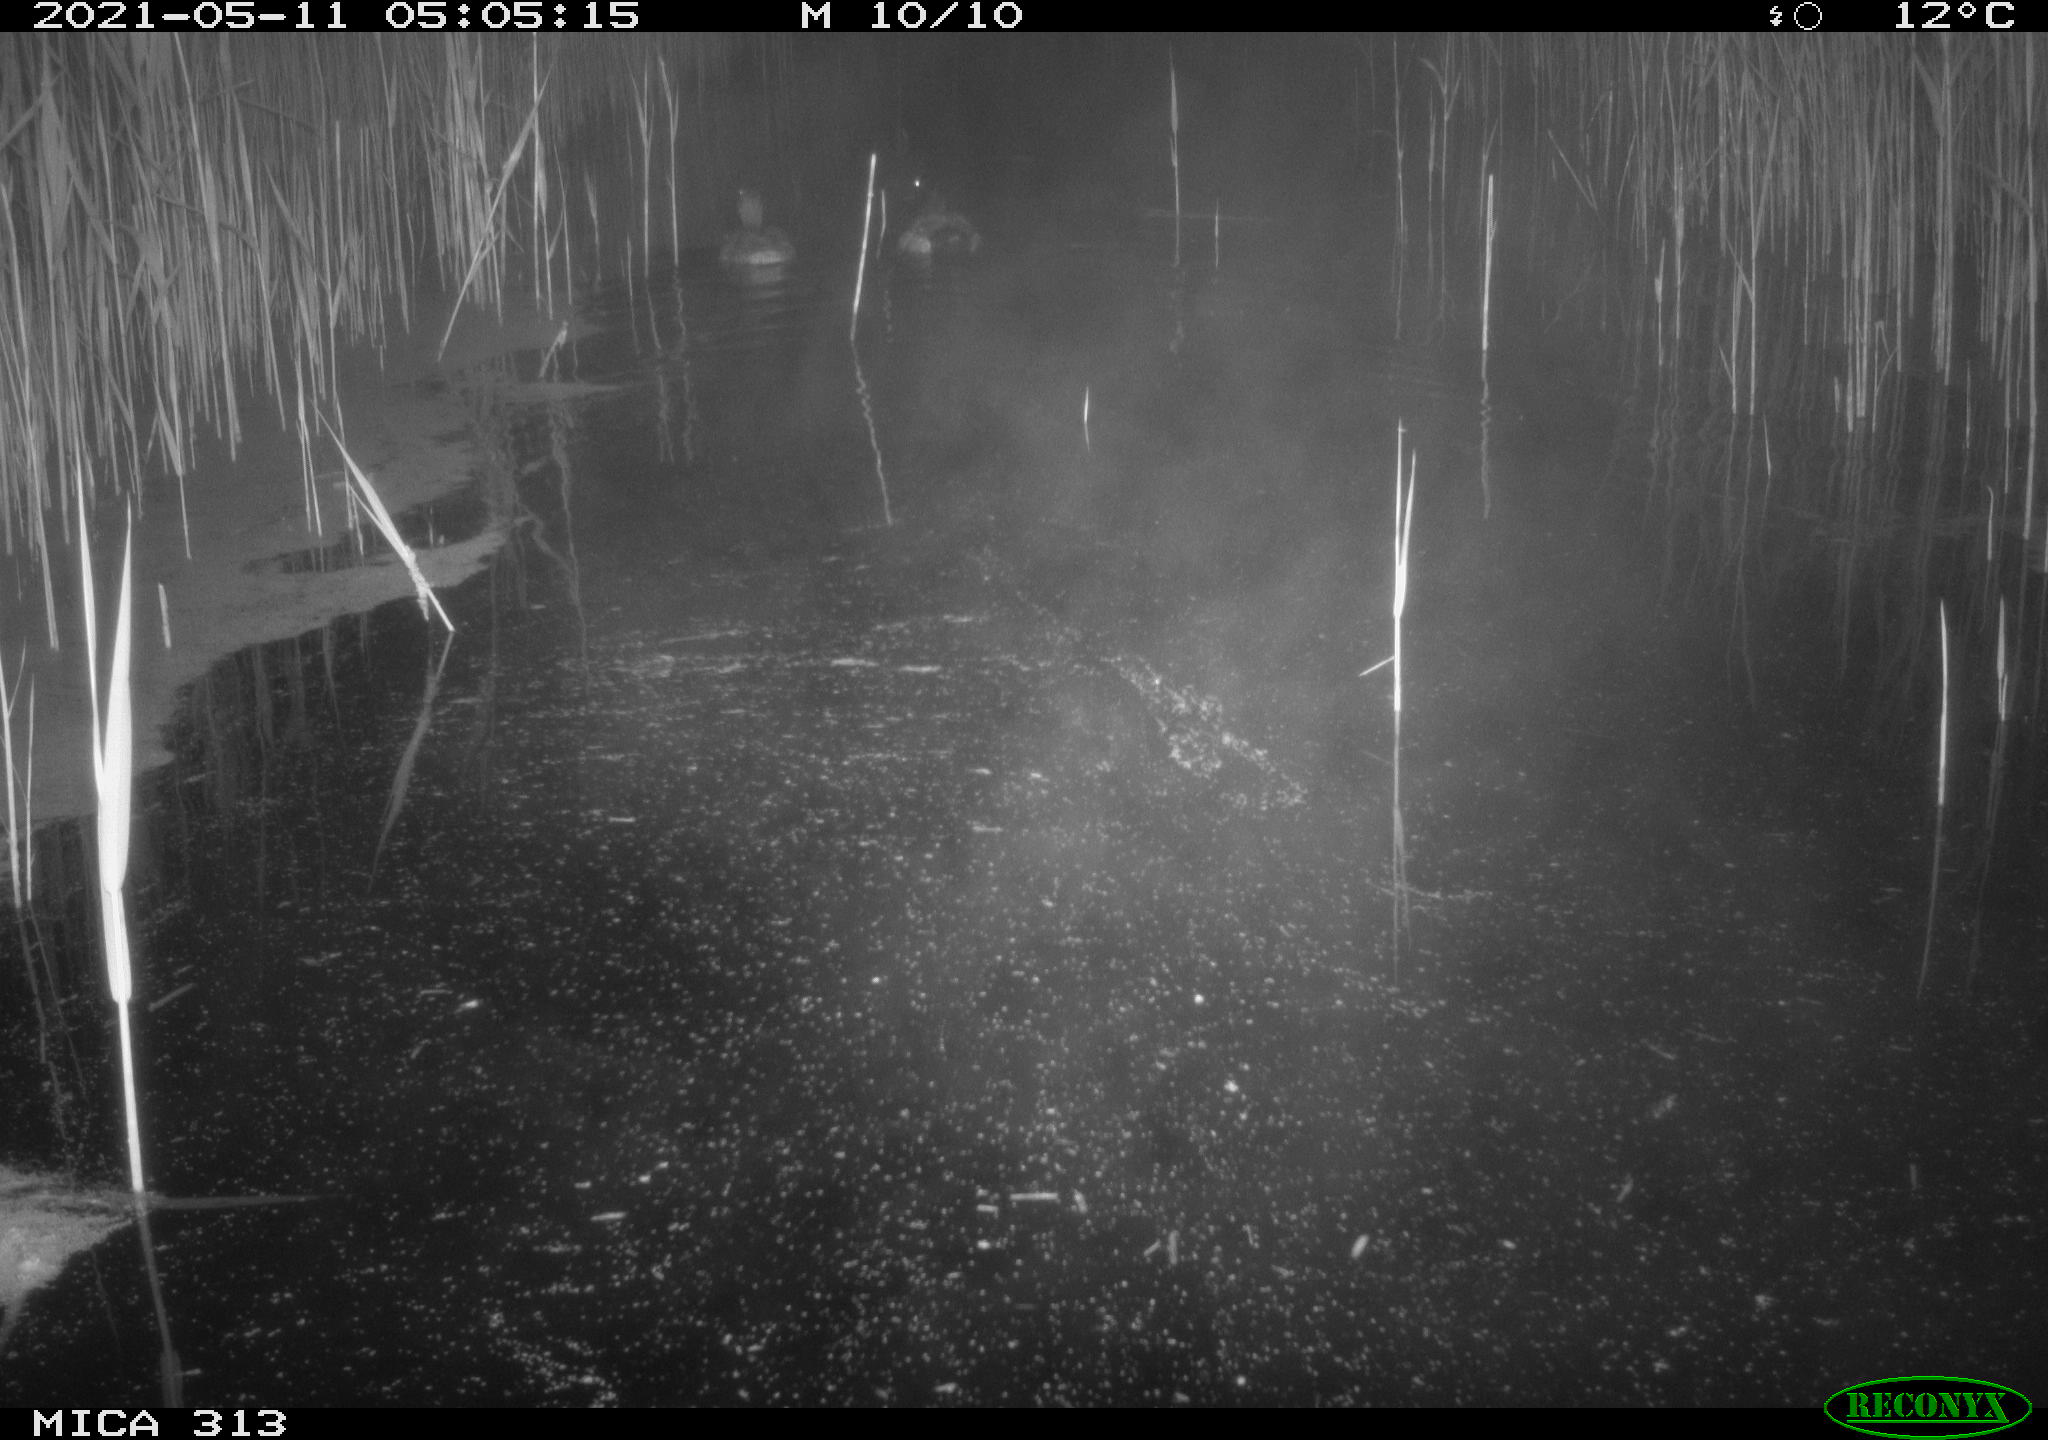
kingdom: Animalia
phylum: Chordata
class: Aves
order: Anseriformes
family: Anatidae
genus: Mareca
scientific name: Mareca strepera
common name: Gadwall
